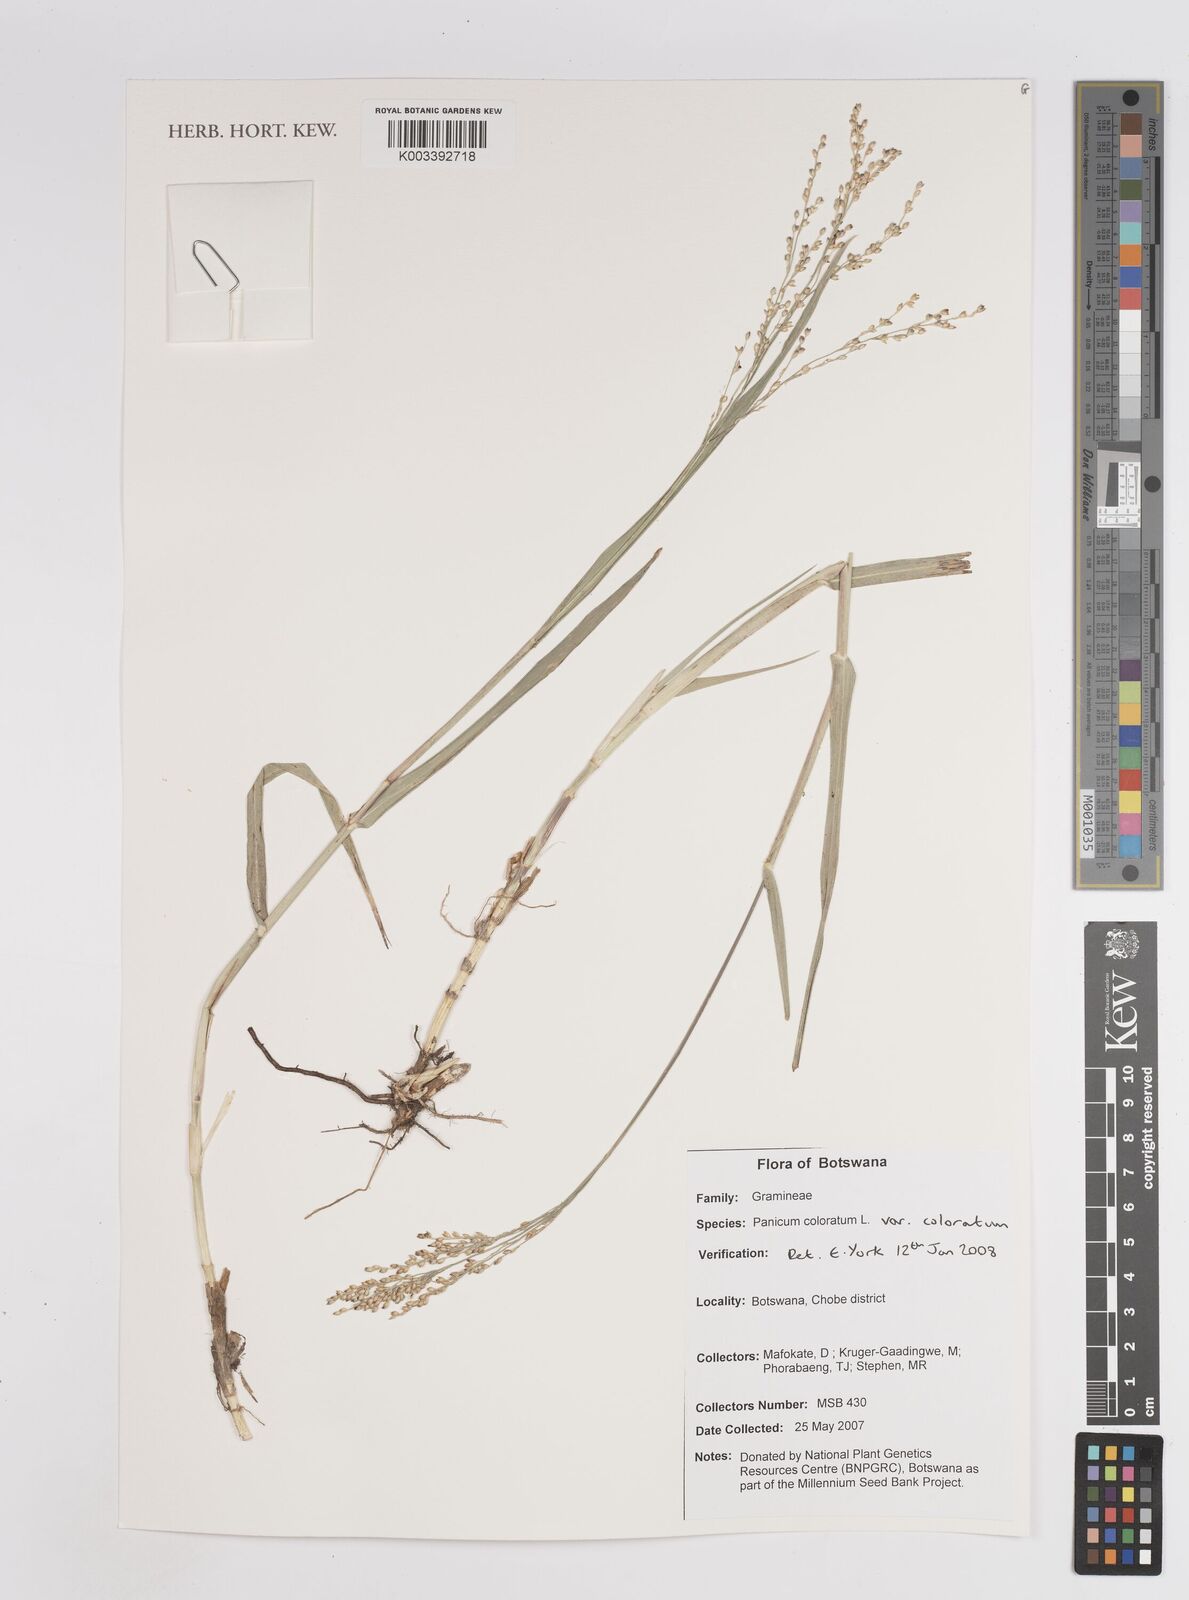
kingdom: Plantae
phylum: Tracheophyta
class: Liliopsida
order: Poales
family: Poaceae
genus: Panicum
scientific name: Panicum coloratum
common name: Kleingrass
